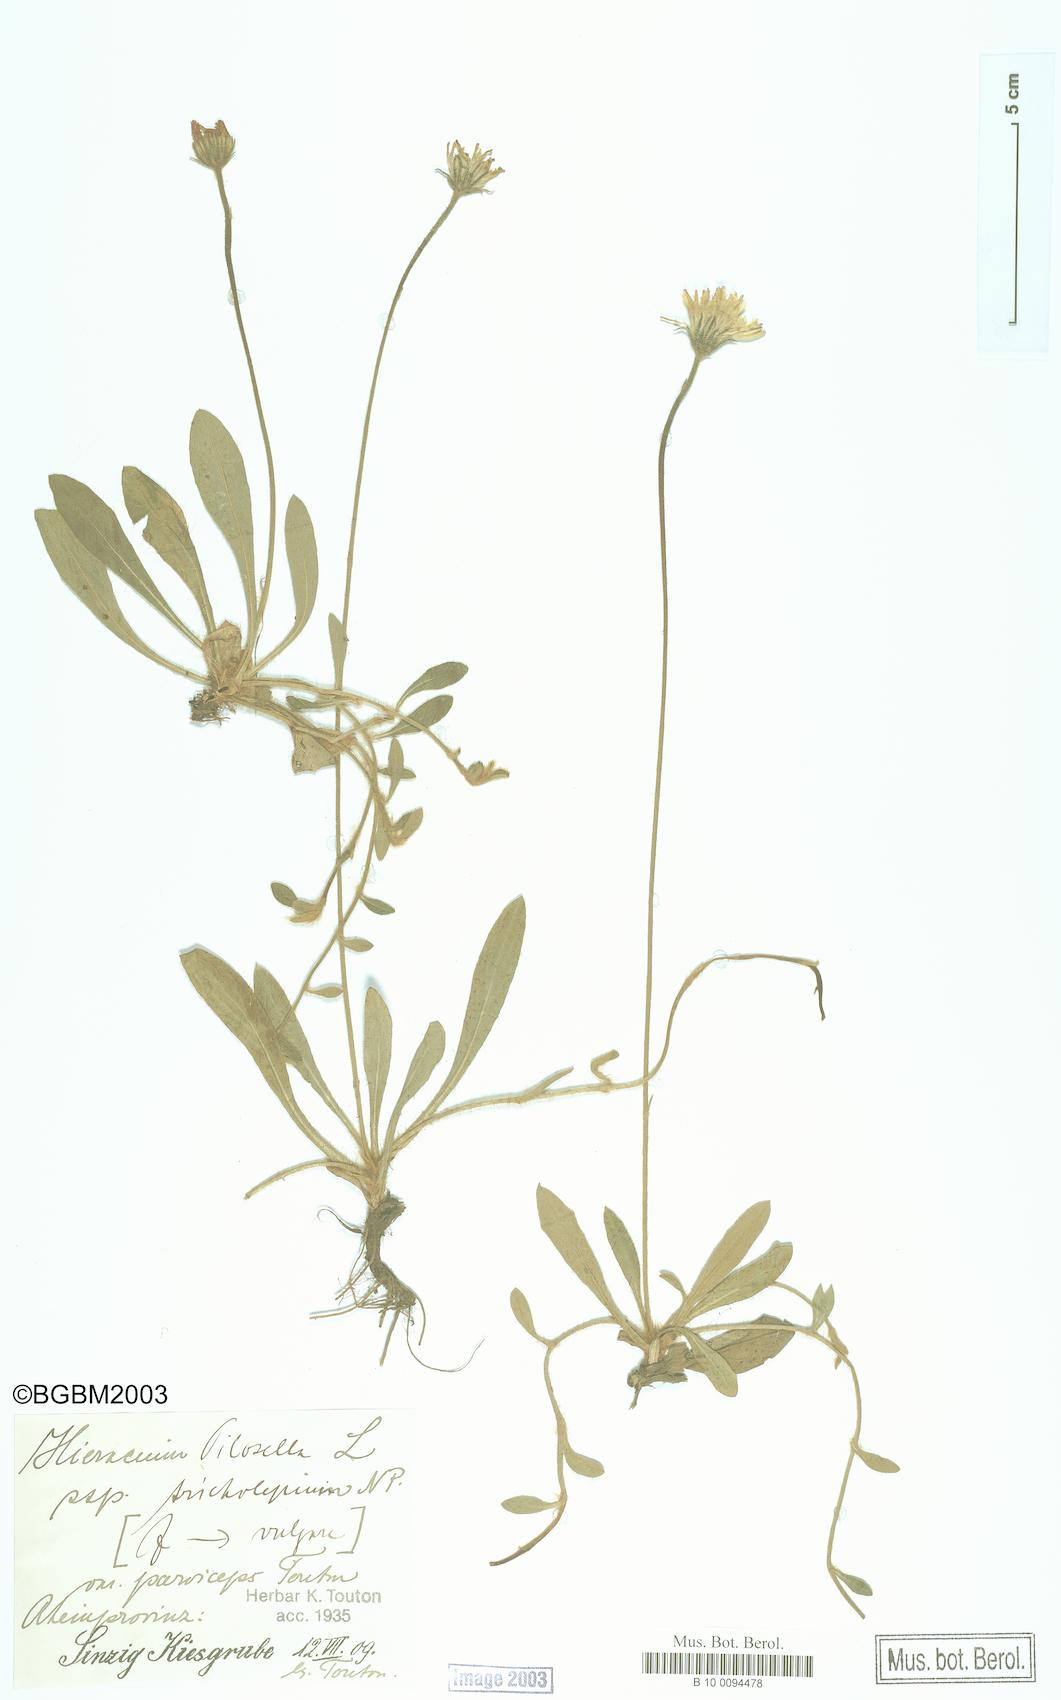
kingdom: Plantae
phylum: Tracheophyta
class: Magnoliopsida
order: Asterales
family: Asteraceae
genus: Pilosella
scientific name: Pilosella officinarum
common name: Mouse-ear hawkweed
